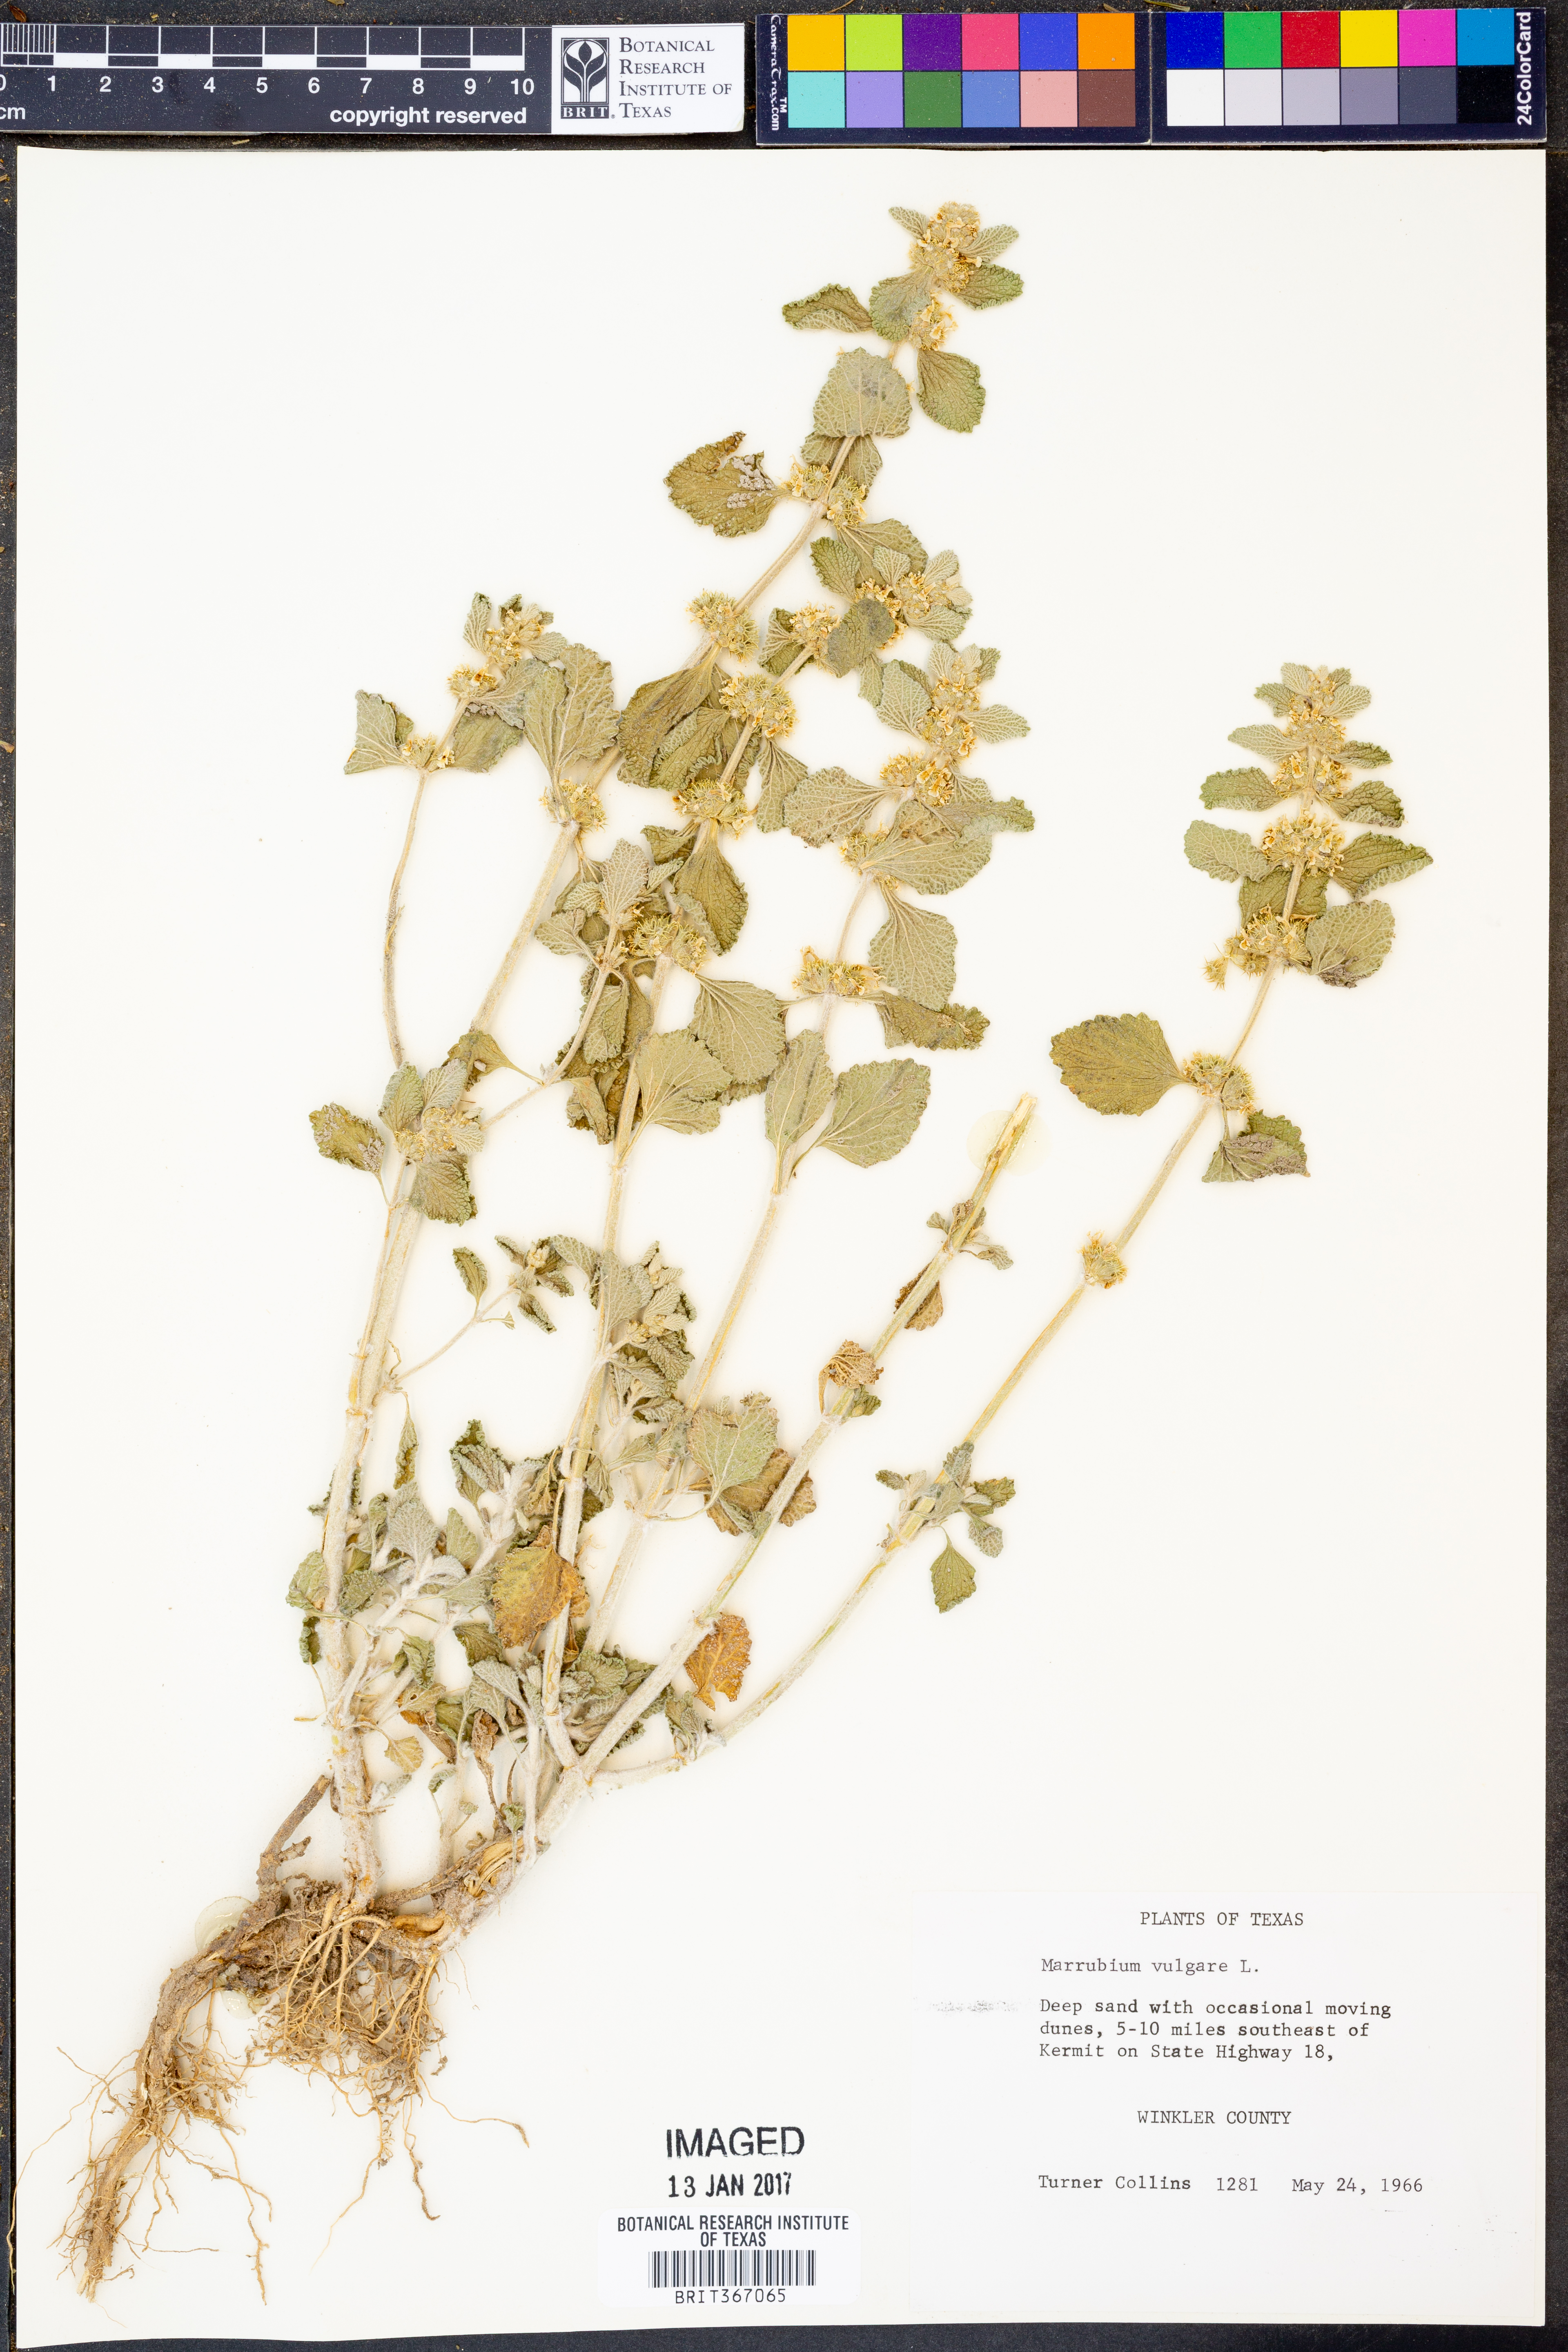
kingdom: Plantae
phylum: Tracheophyta
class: Magnoliopsida
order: Lamiales
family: Lamiaceae
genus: Marrubium
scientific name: Marrubium vulgare
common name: Horehound
